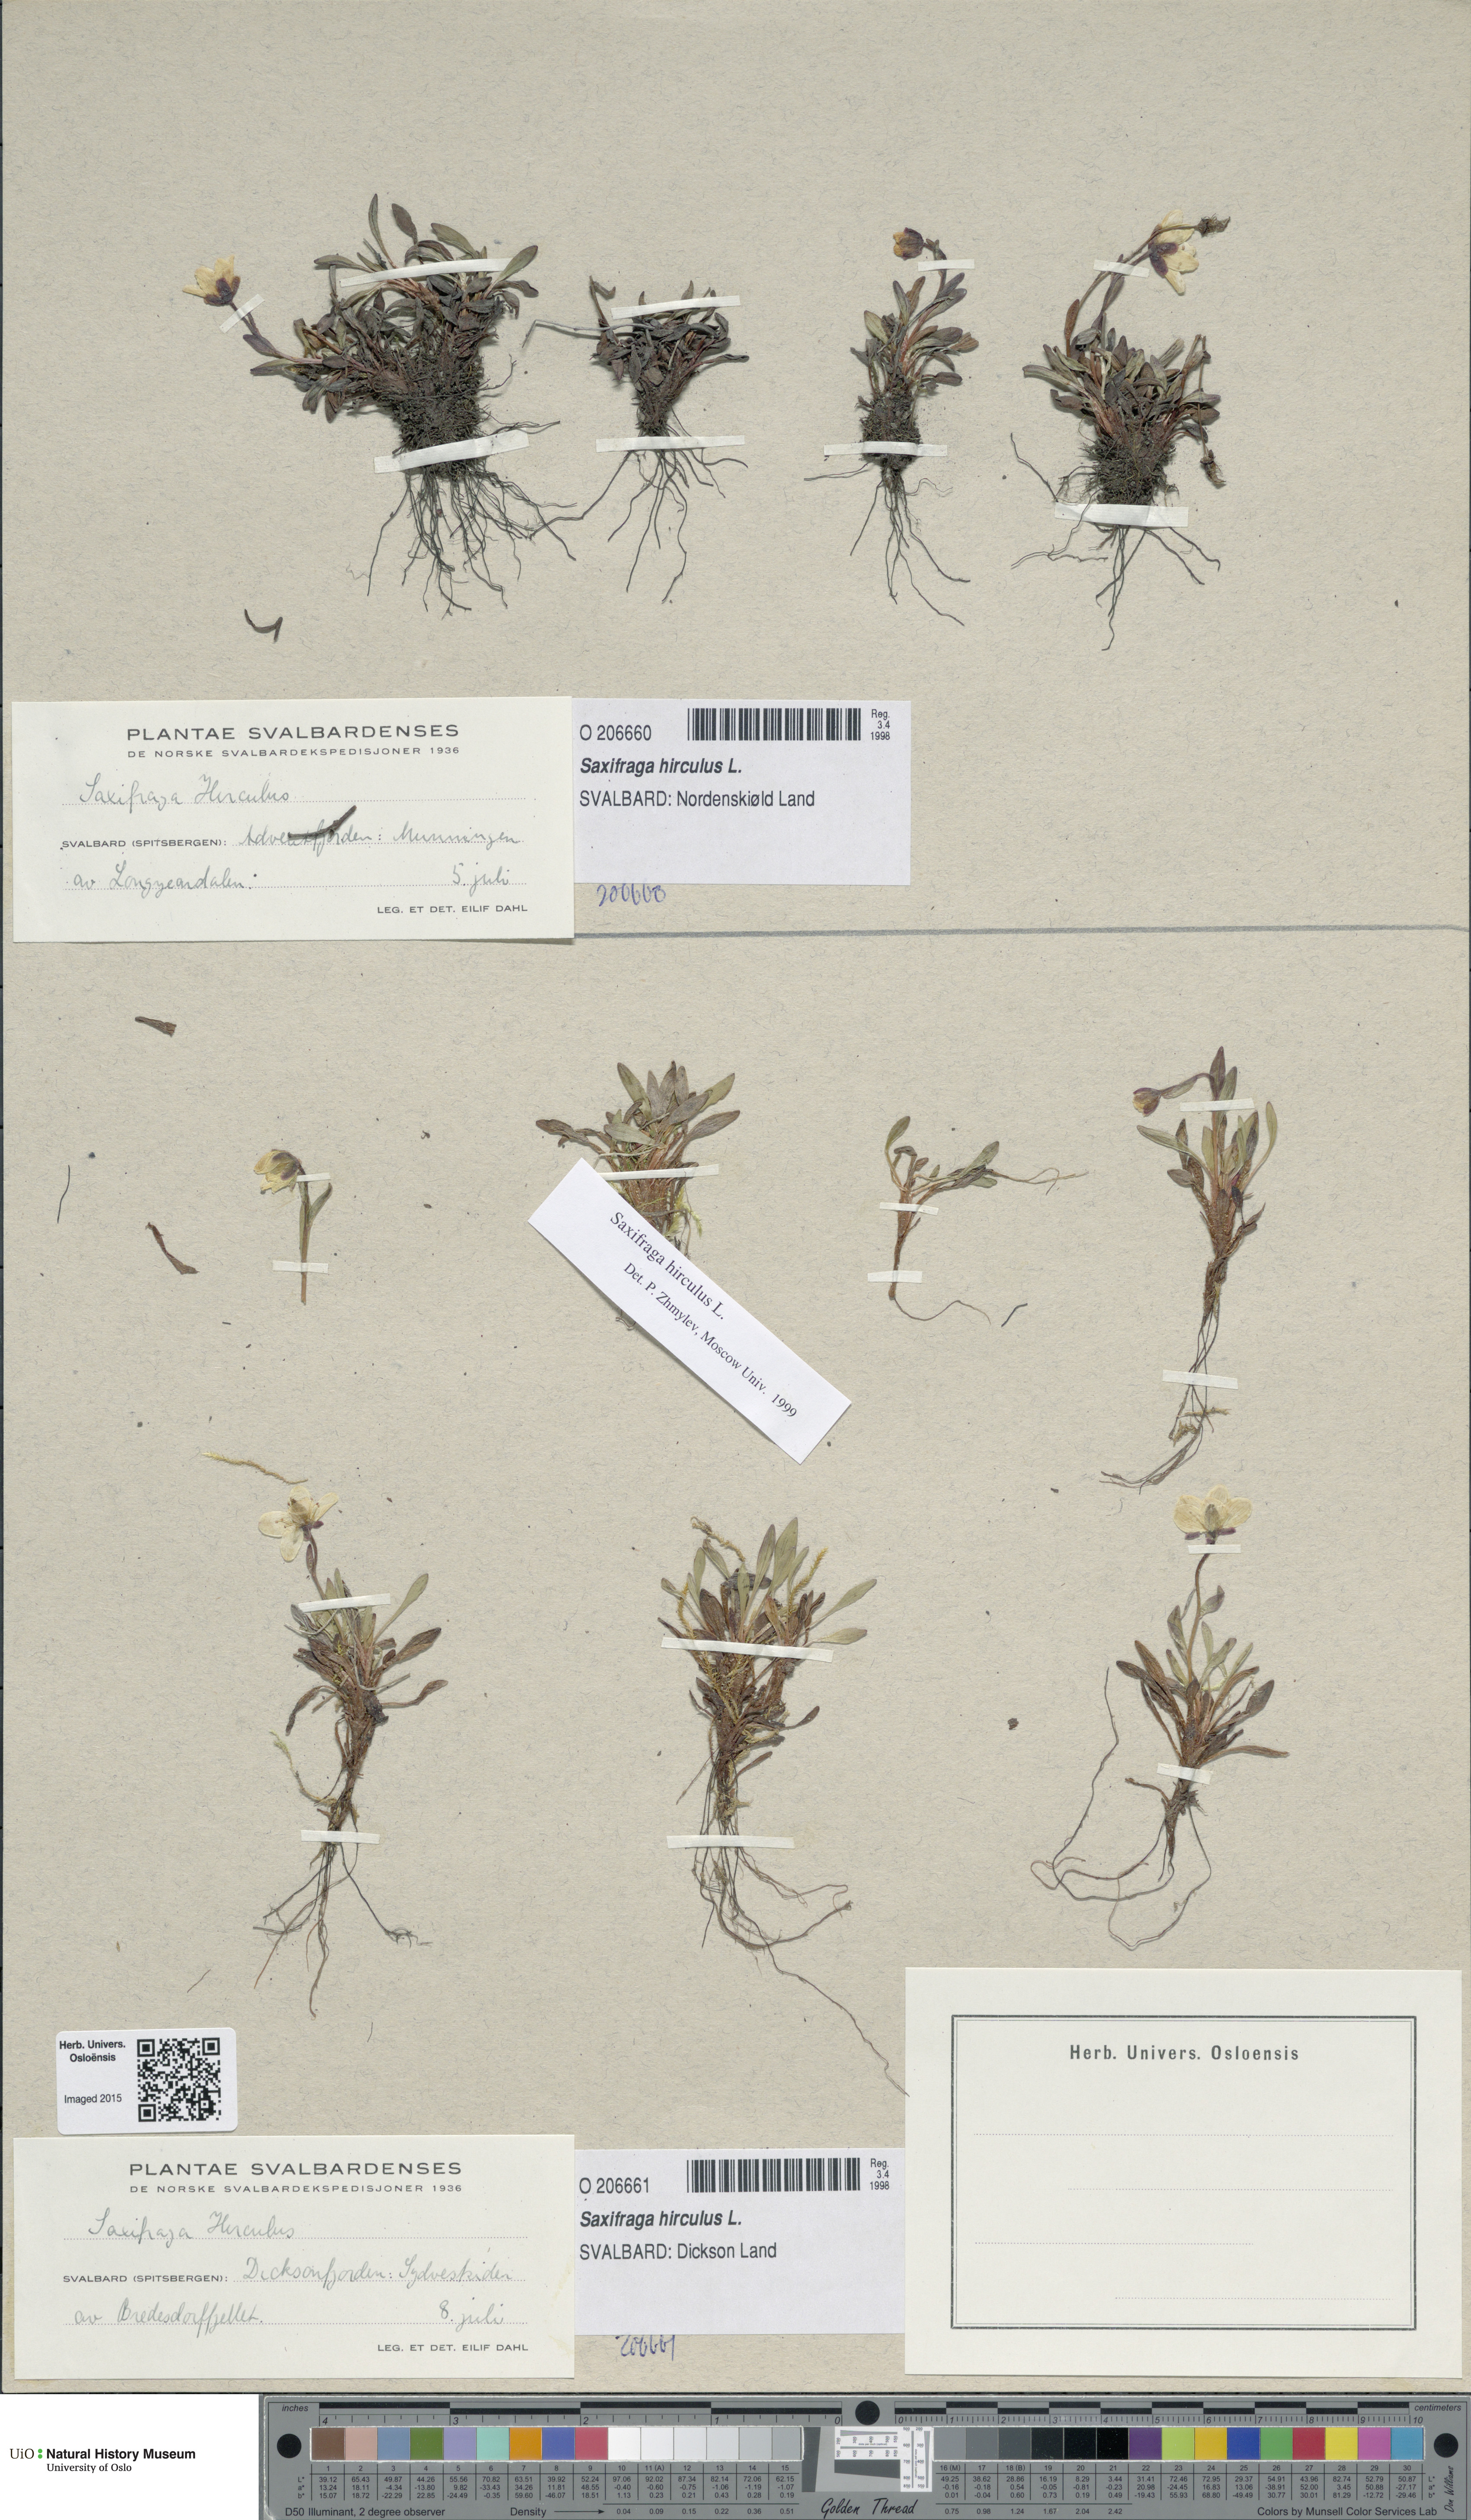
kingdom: Plantae
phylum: Tracheophyta
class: Magnoliopsida
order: Saxifragales
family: Saxifragaceae
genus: Saxifraga
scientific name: Saxifraga hirculus
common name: Yellow marsh saxifrage
